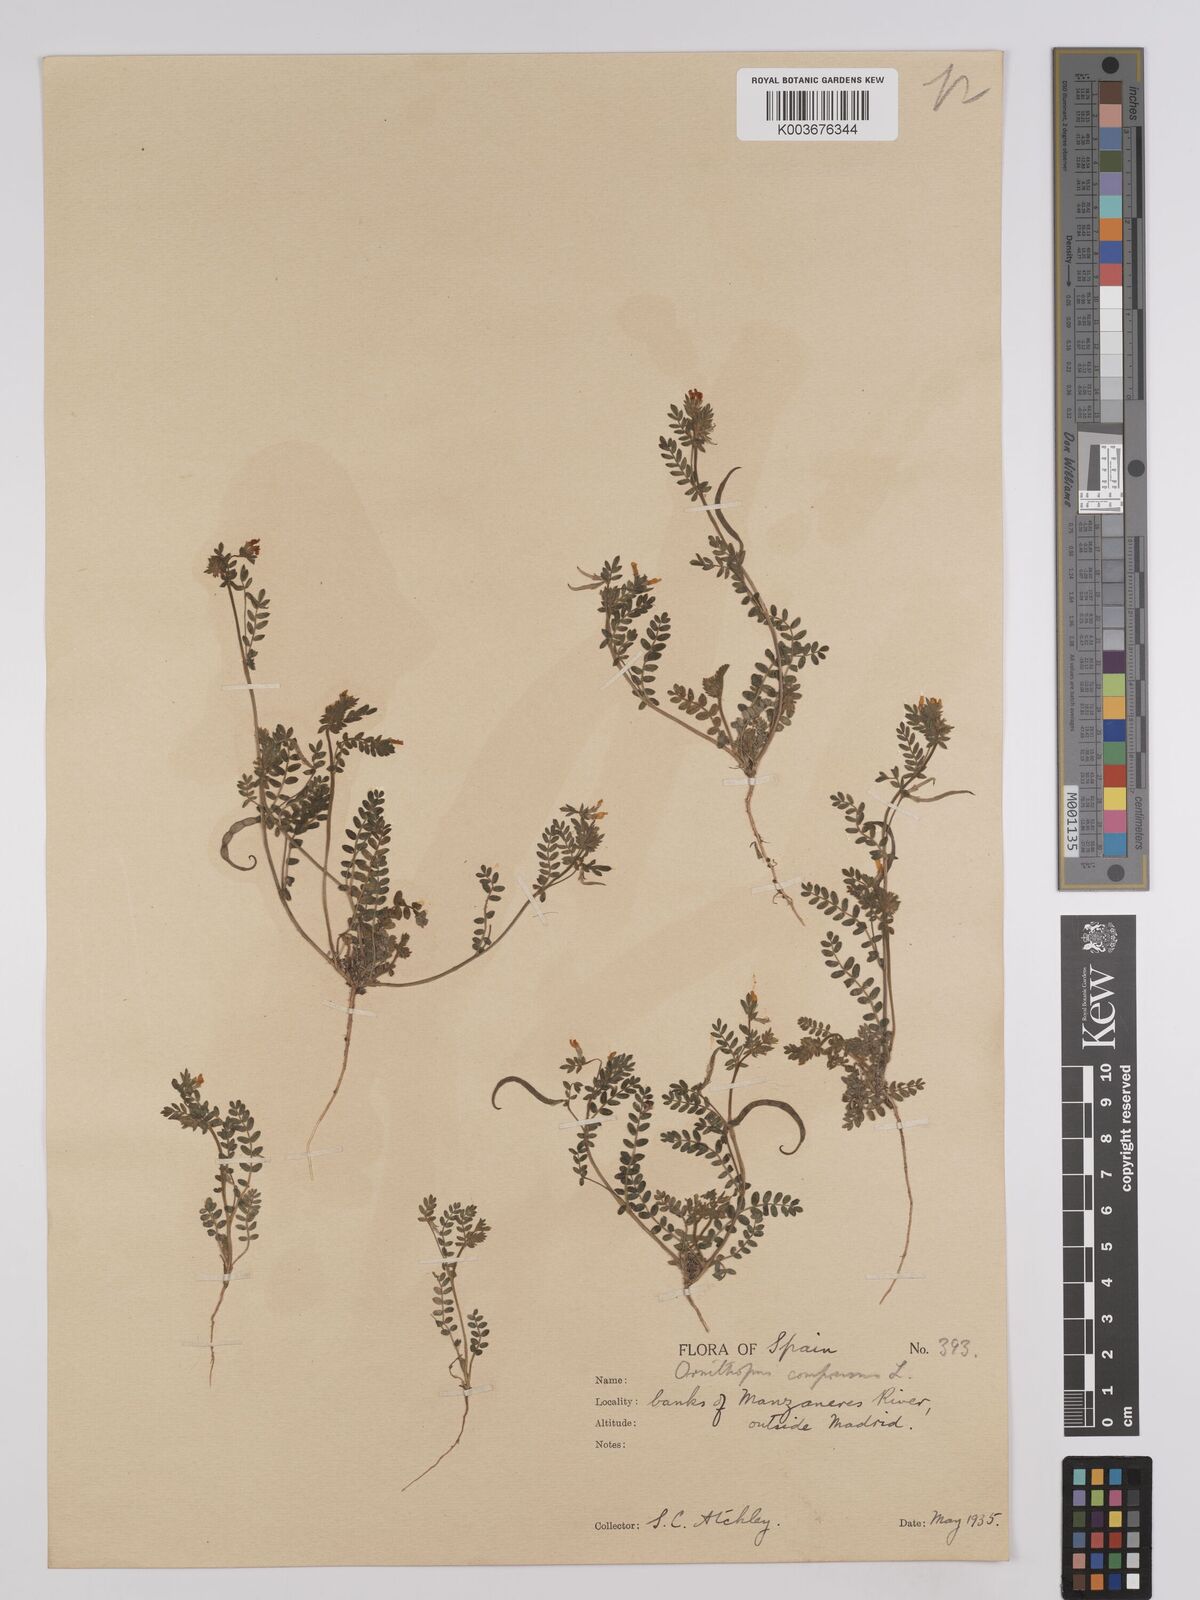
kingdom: Plantae
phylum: Tracheophyta
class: Magnoliopsida
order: Fabales
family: Fabaceae
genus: Ornithopus
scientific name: Ornithopus compressus
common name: Yellow serradella
